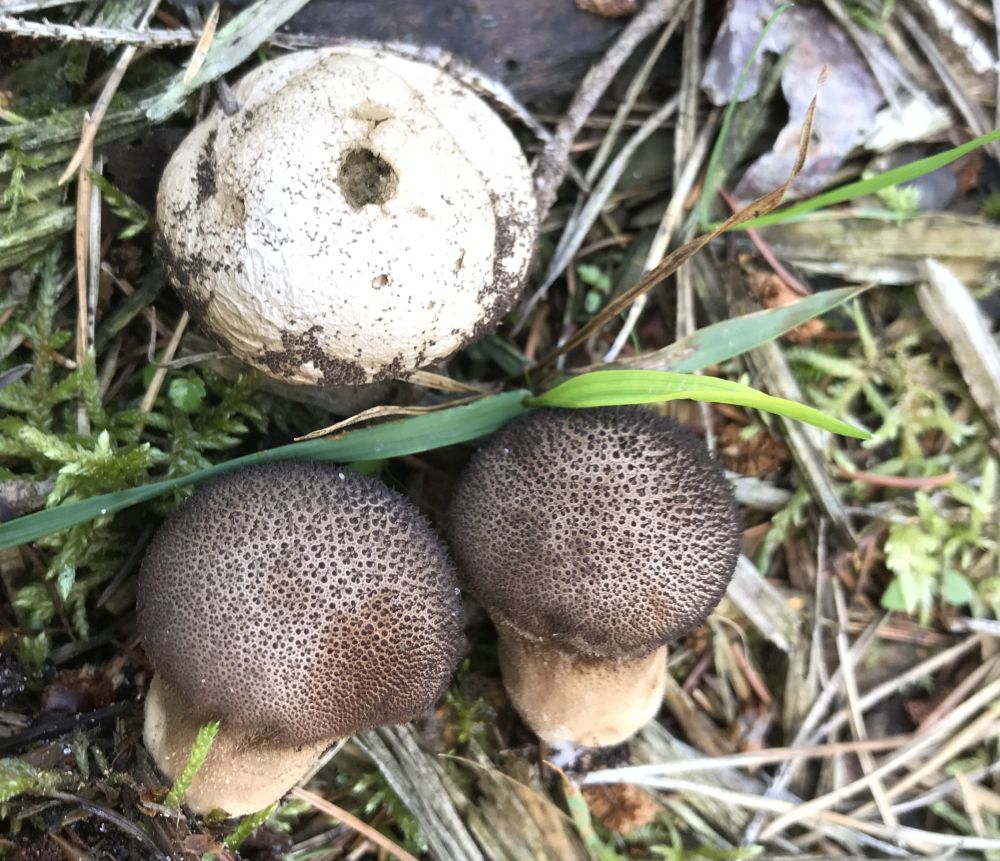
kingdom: Fungi
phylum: Basidiomycota
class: Agaricomycetes
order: Agaricales
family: Lycoperdaceae
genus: Lycoperdon
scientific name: Lycoperdon nigrescens
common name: sortagtig støvbold
